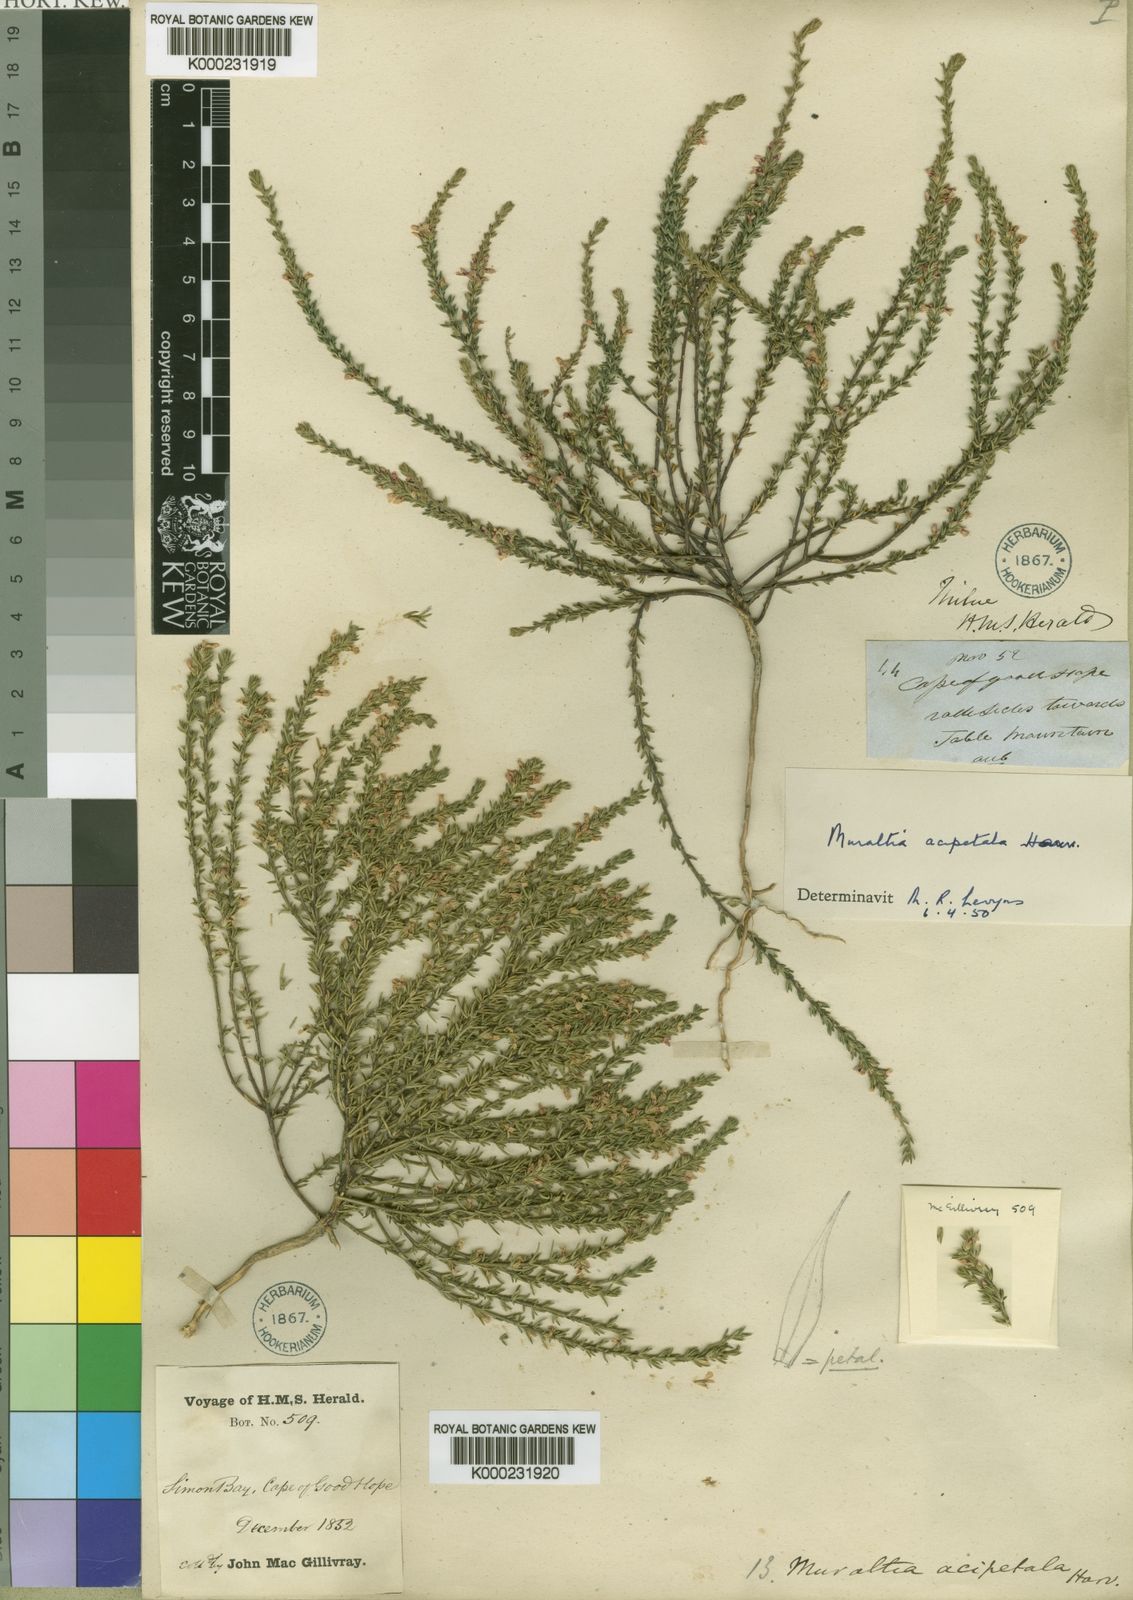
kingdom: Plantae
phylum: Tracheophyta
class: Magnoliopsida
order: Fabales
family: Polygalaceae
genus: Muraltia
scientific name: Muraltia acipetala
